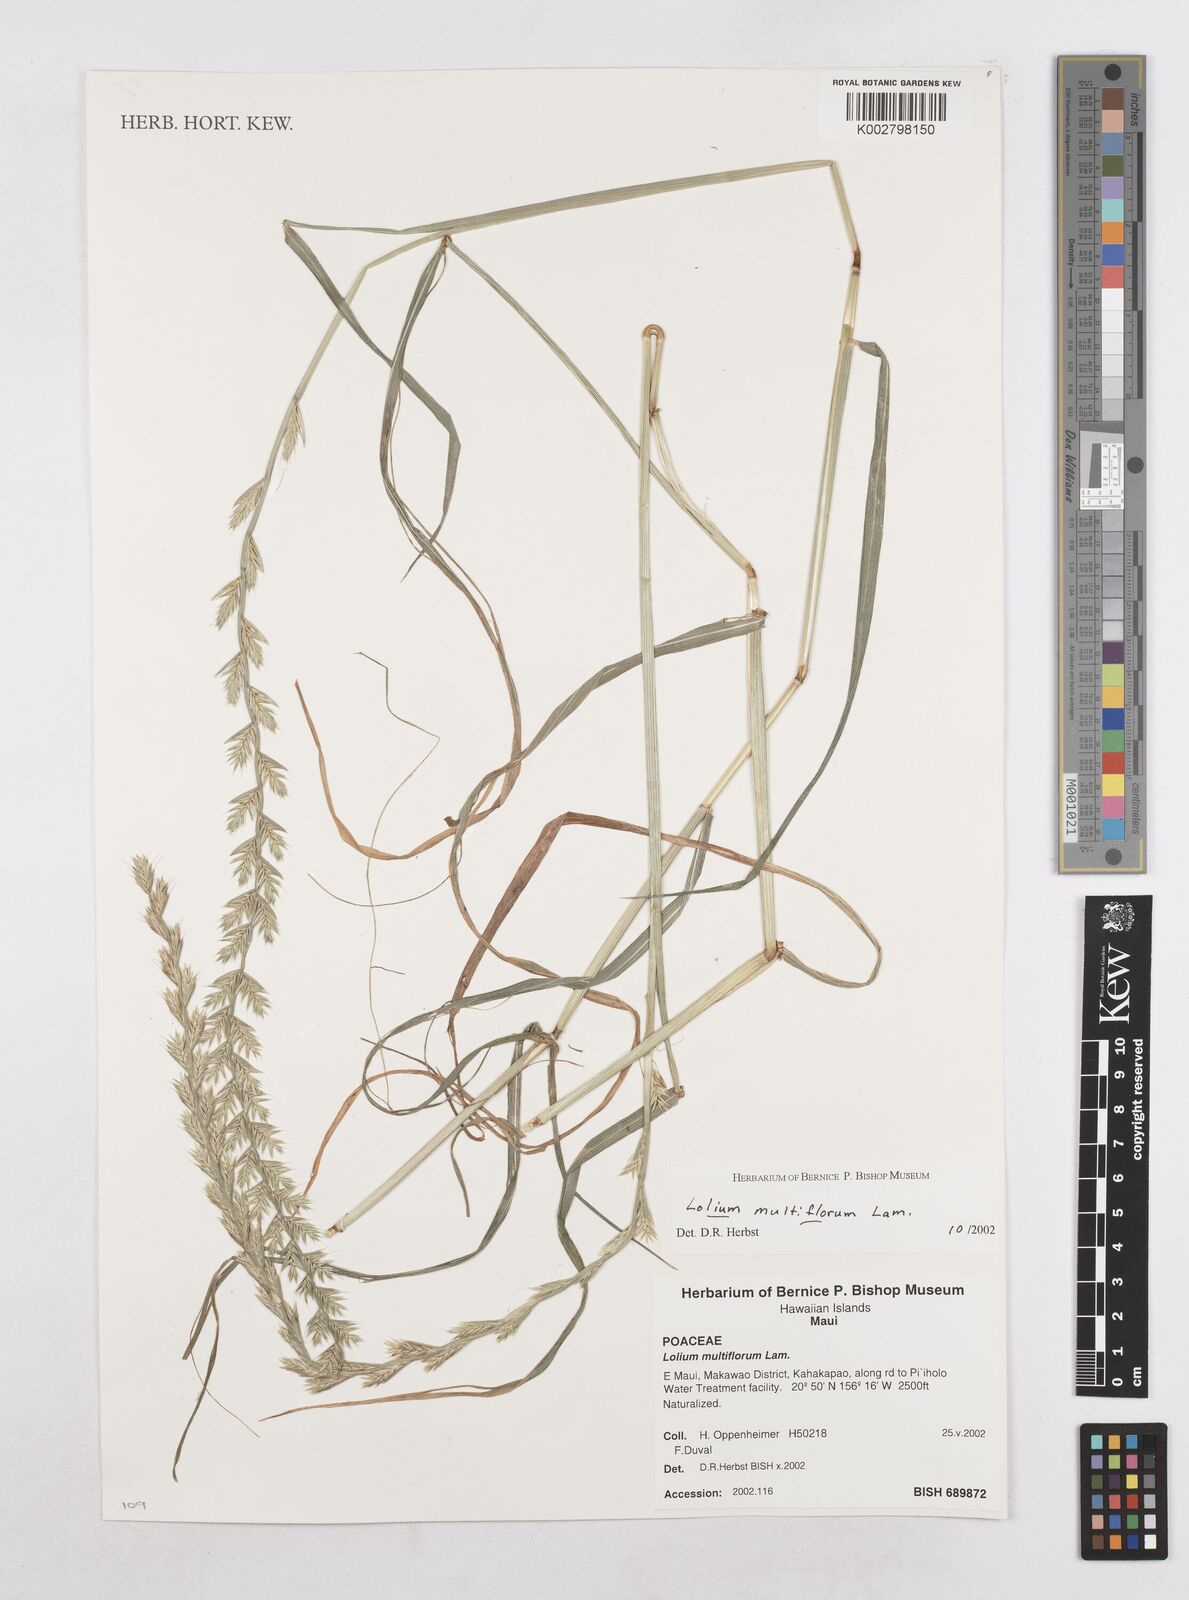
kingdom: Plantae
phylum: Tracheophyta
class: Liliopsida
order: Poales
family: Poaceae
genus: Lolium
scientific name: Lolium multiflorum
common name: Annual ryegrass
